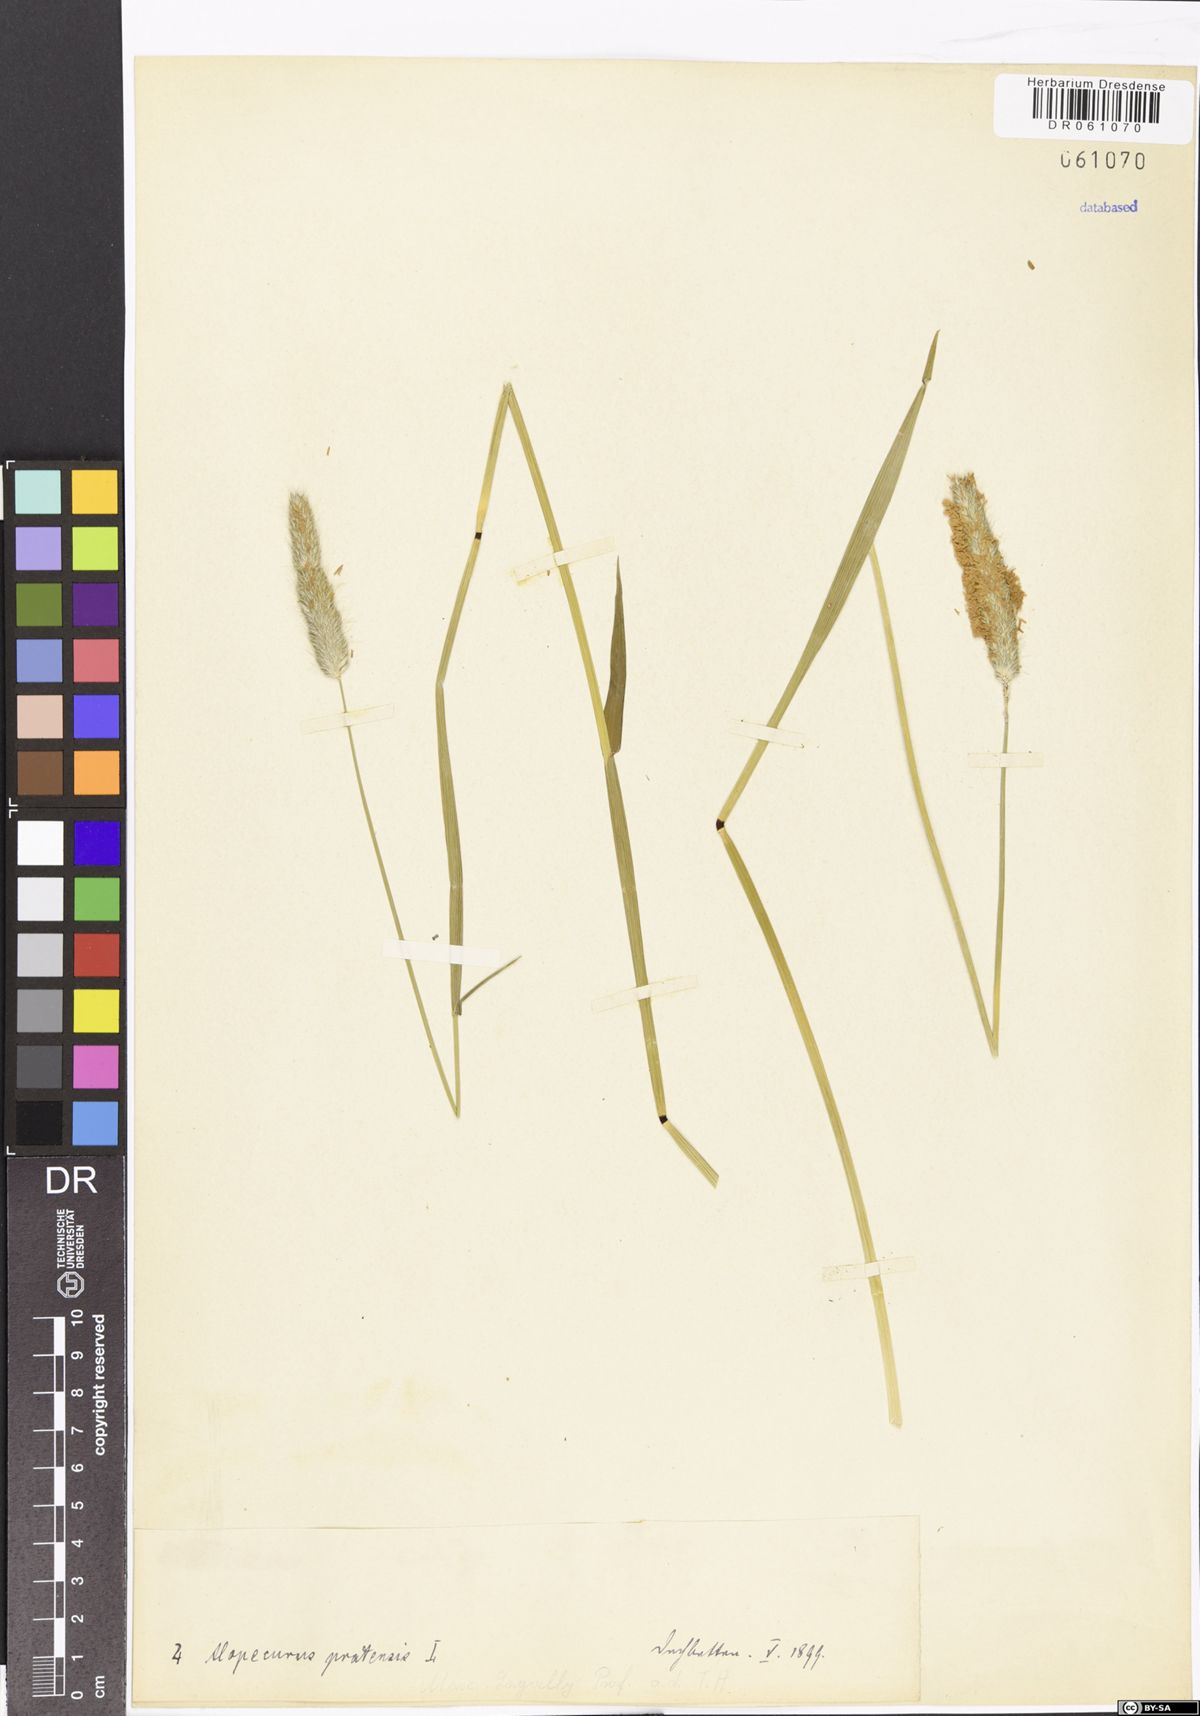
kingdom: Plantae
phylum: Tracheophyta
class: Liliopsida
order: Poales
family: Poaceae
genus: Alopecurus
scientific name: Alopecurus pratensis
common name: Meadow foxtail
